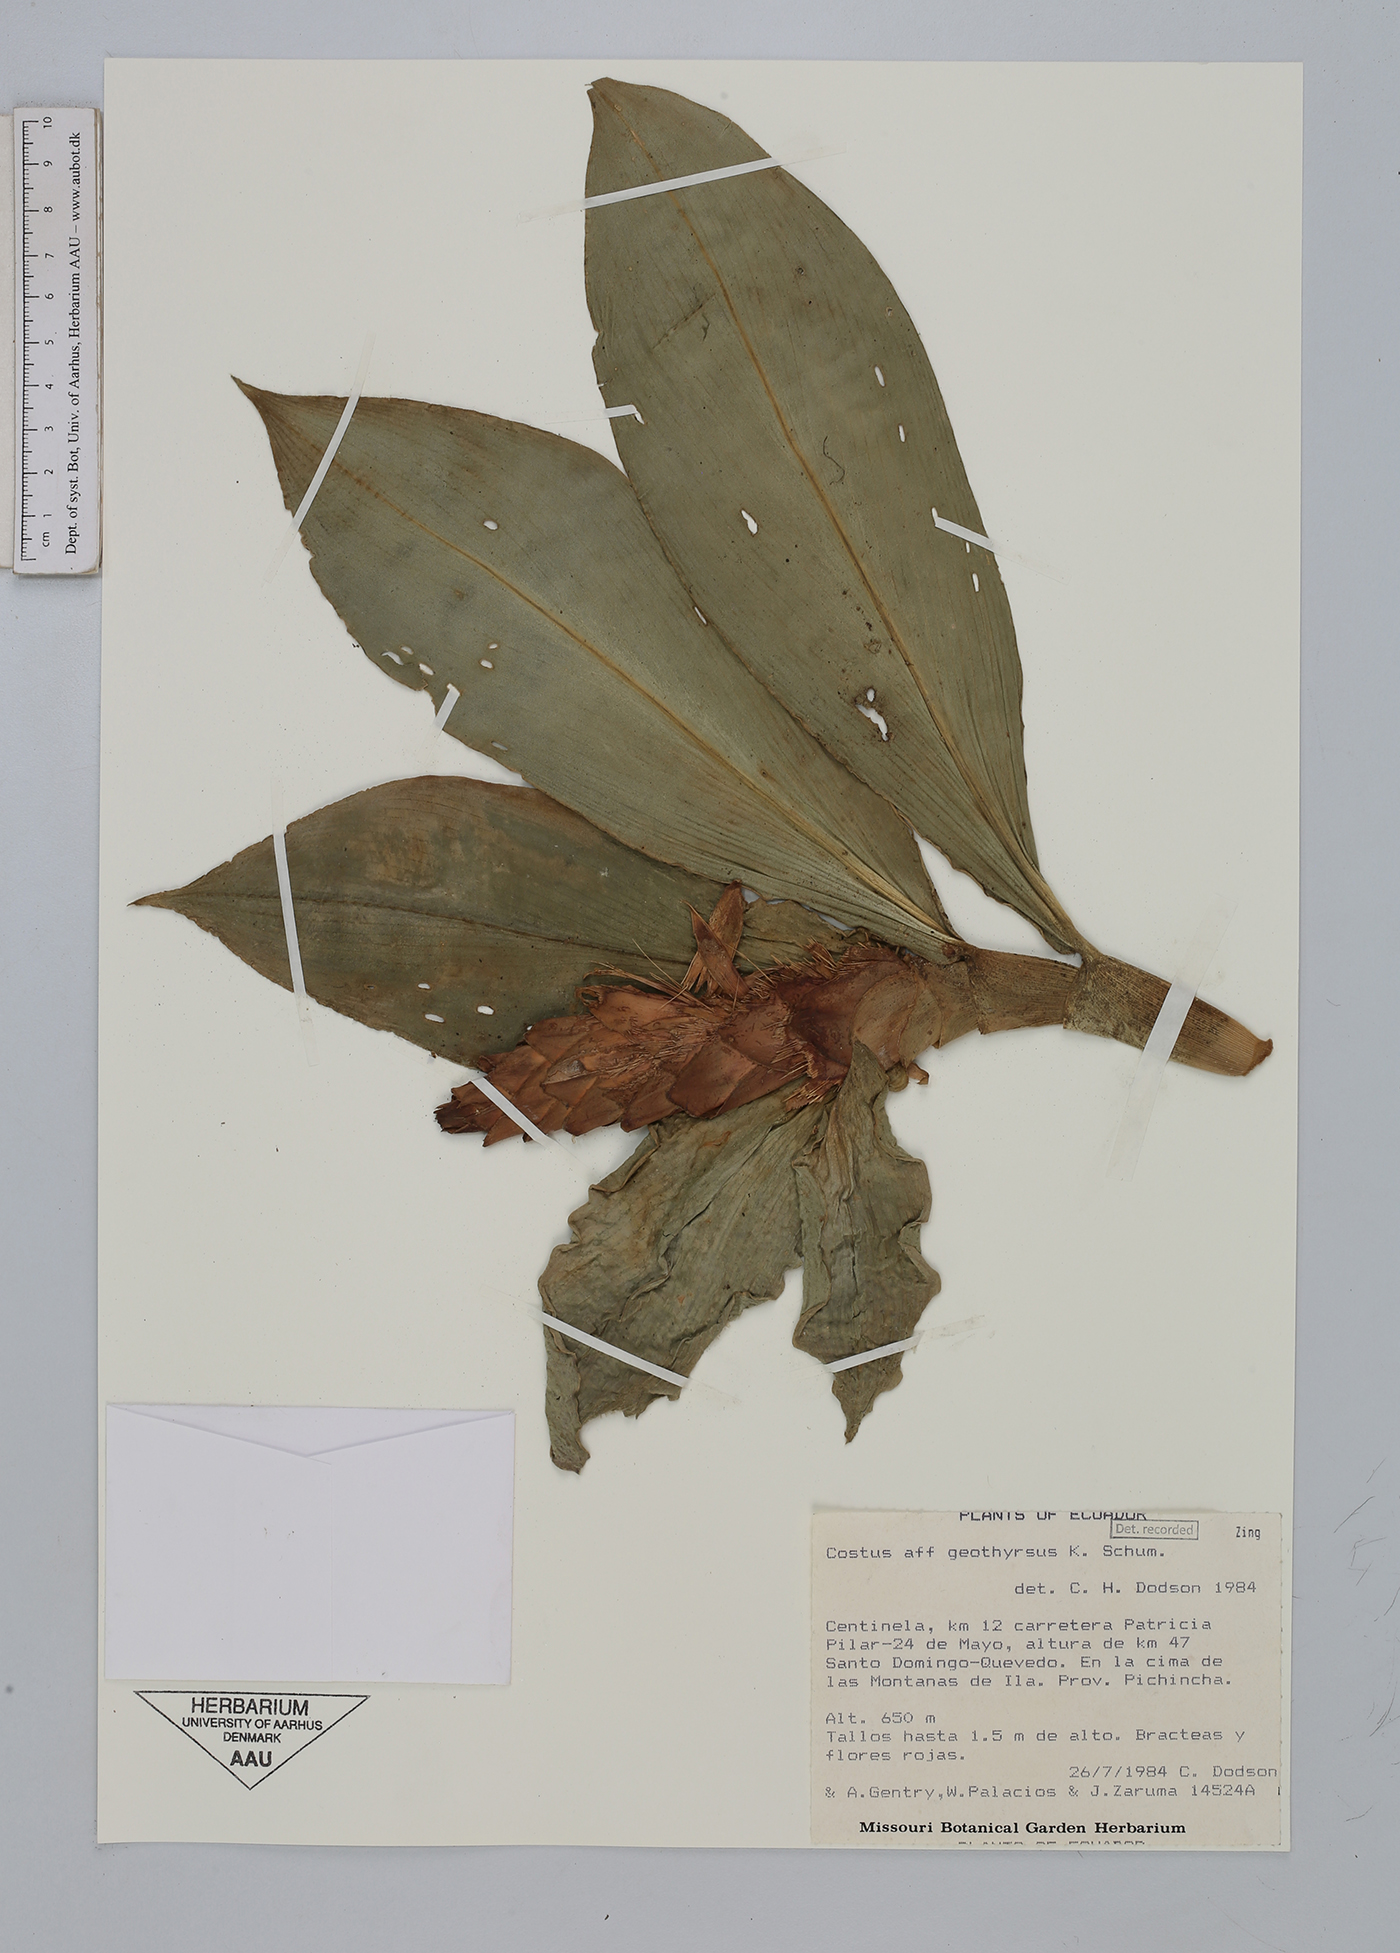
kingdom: Plantae
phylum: Tracheophyta
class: Liliopsida
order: Zingiberales
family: Costaceae
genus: Costus
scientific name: Costus geothyrsus
